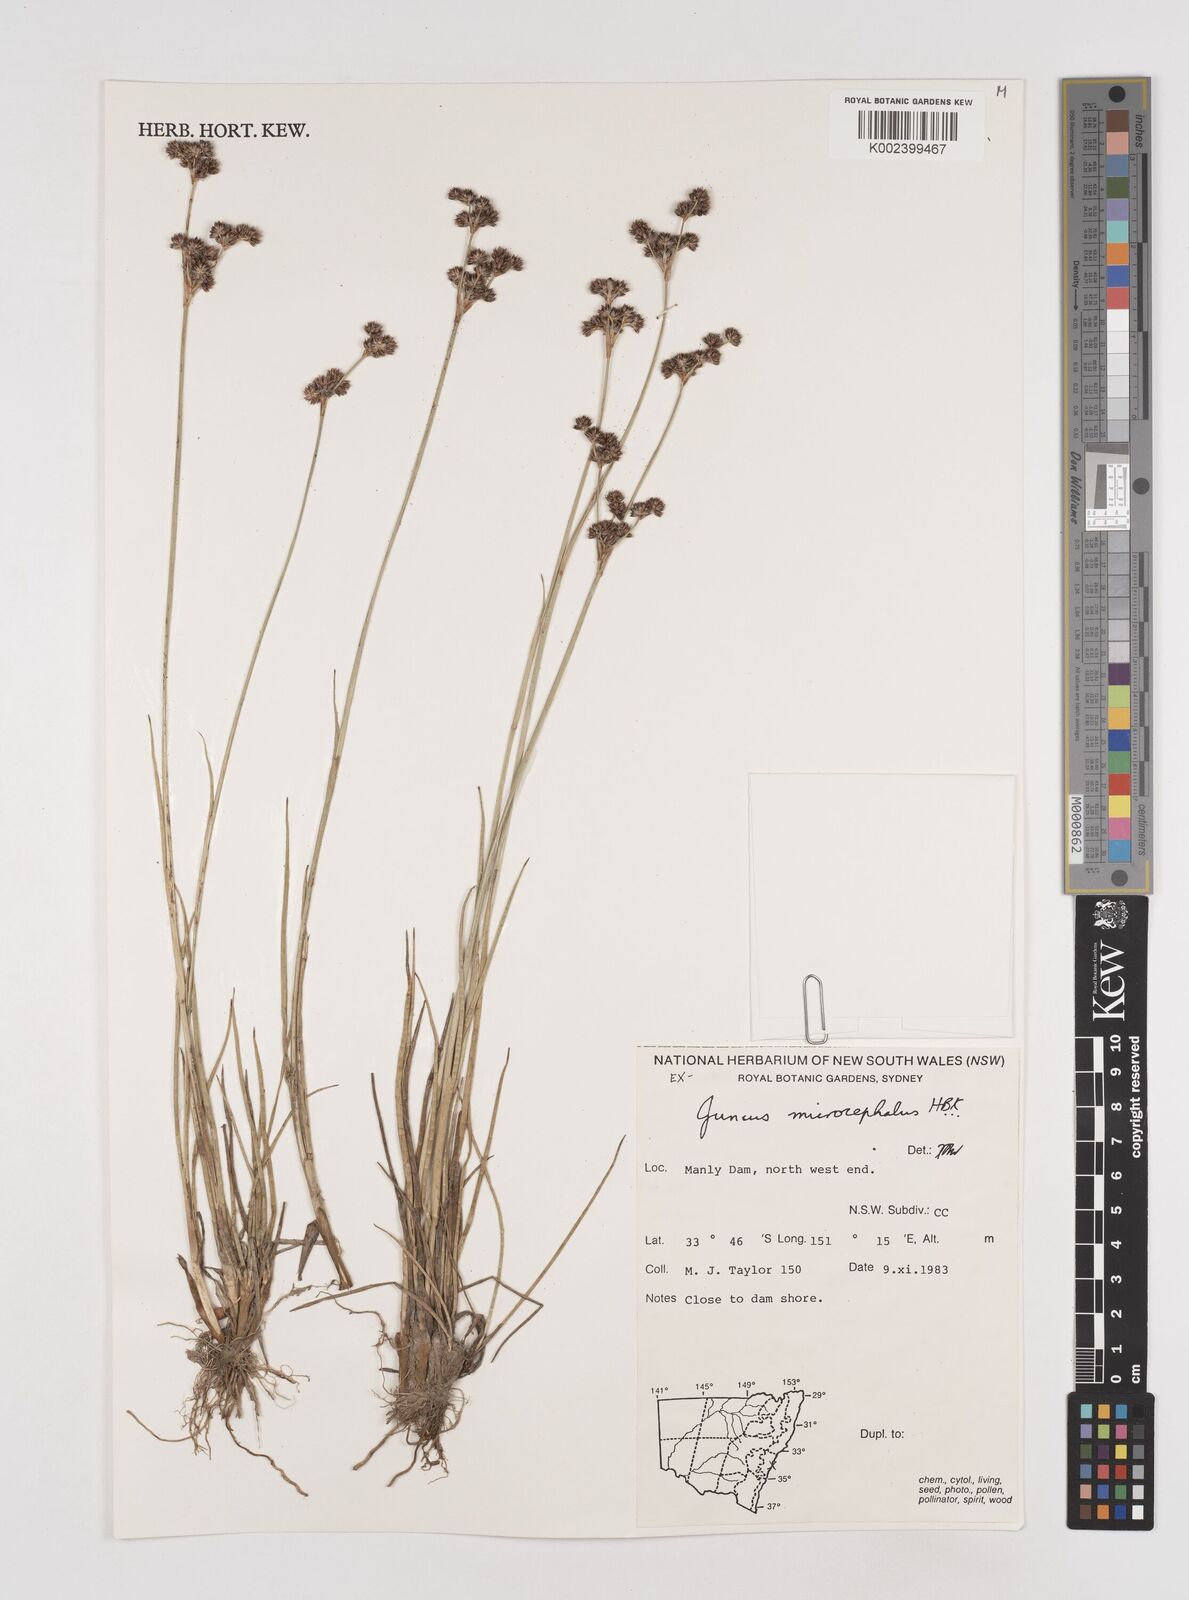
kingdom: Plantae
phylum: Tracheophyta
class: Liliopsida
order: Poales
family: Juncaceae
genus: Juncus
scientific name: Juncus microcephalus
